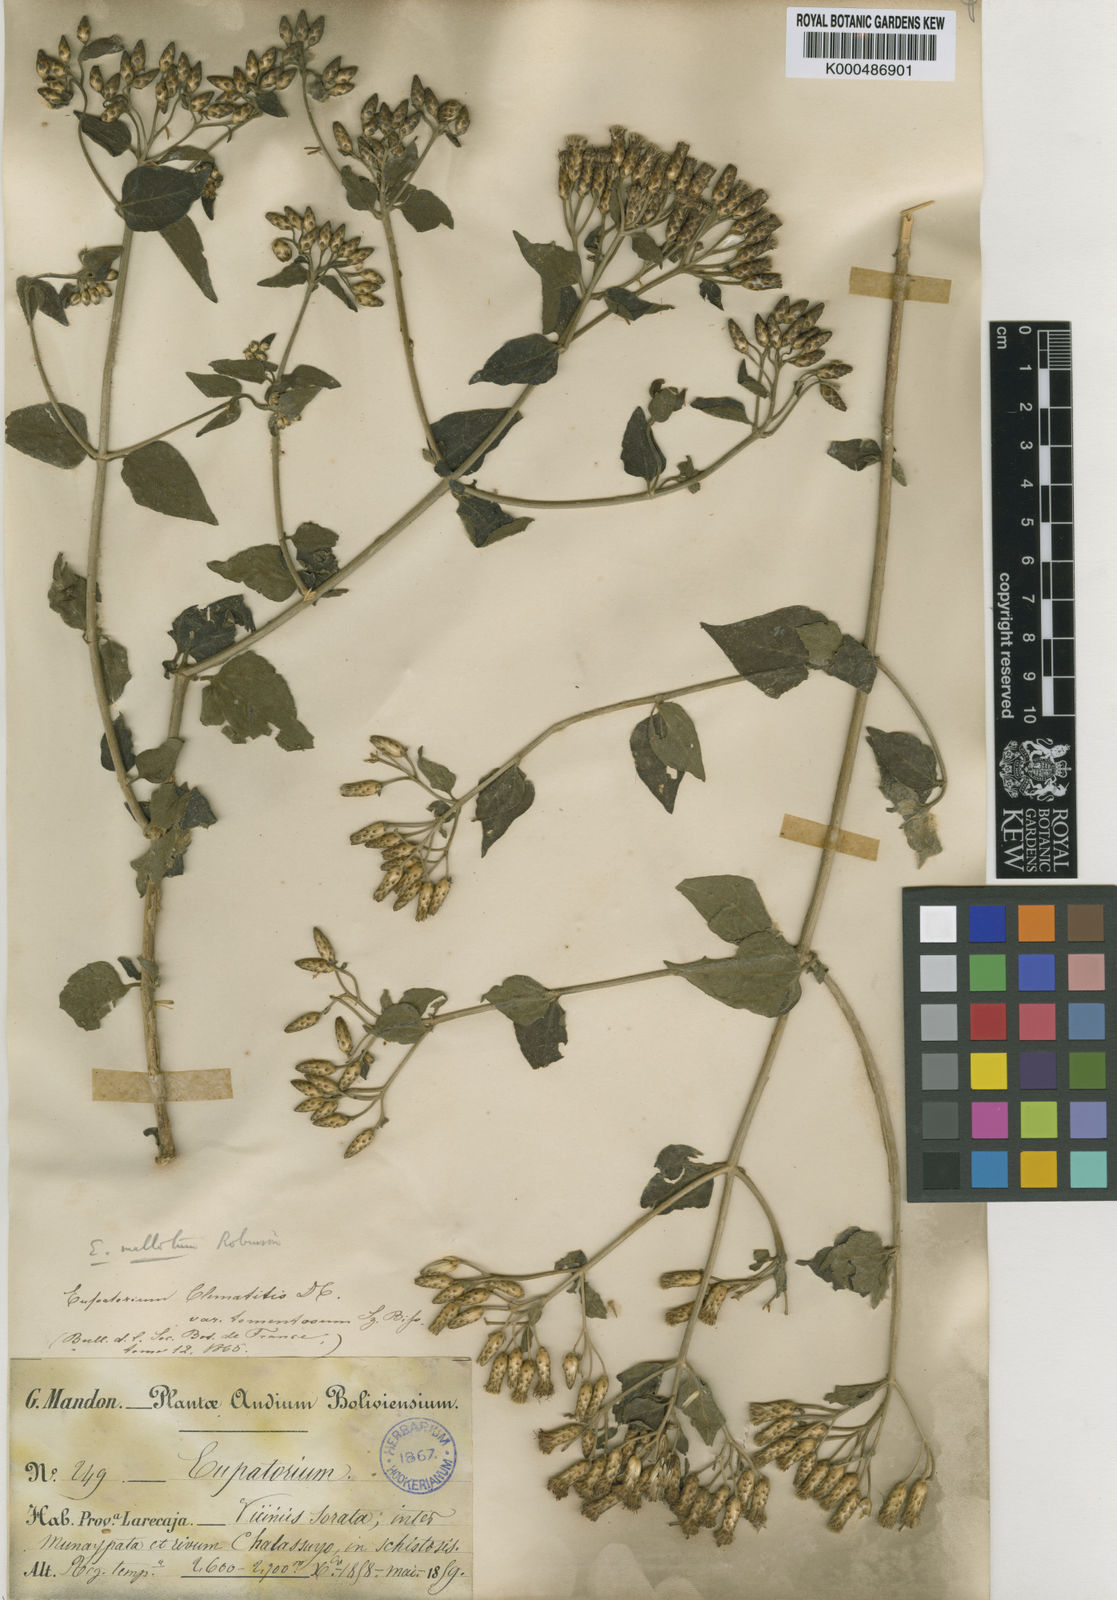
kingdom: Plantae
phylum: Tracheophyta
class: Magnoliopsida
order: Asterales
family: Asteraceae
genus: Chromolaena
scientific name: Chromolaena mallota
